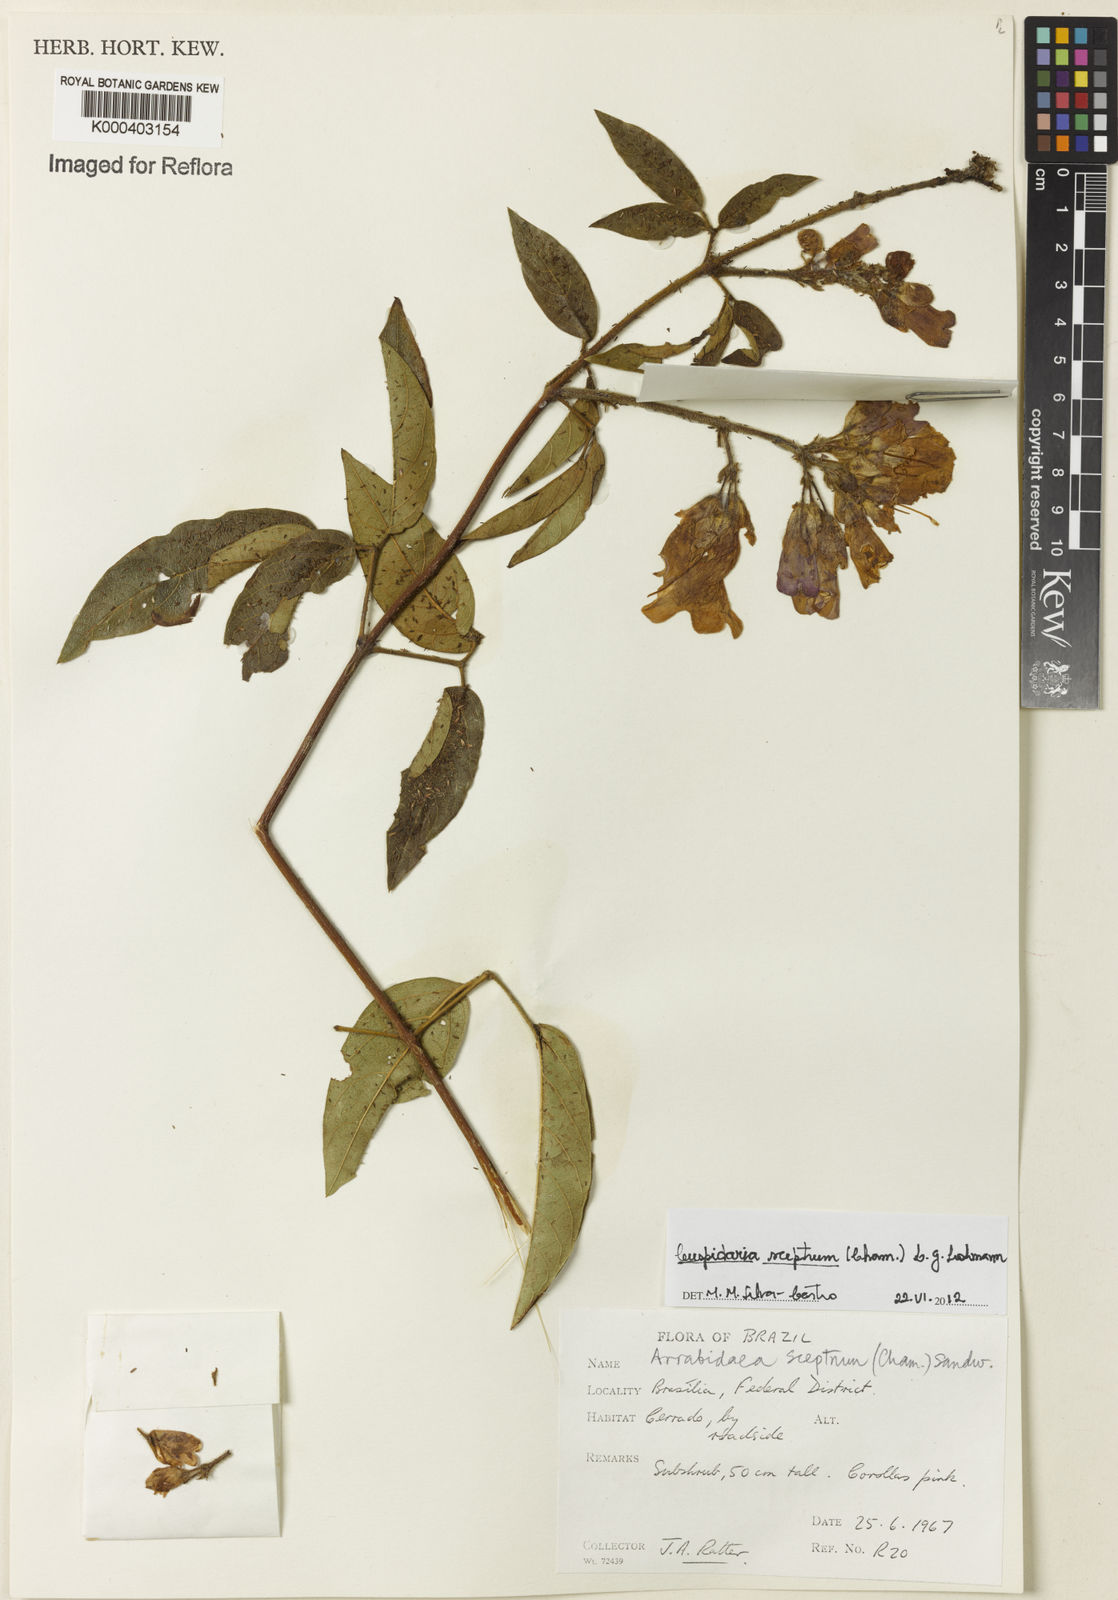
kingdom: Plantae
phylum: Tracheophyta
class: Magnoliopsida
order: Lamiales
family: Bignoniaceae
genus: Cuspidaria
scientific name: Cuspidaria sceptrum
